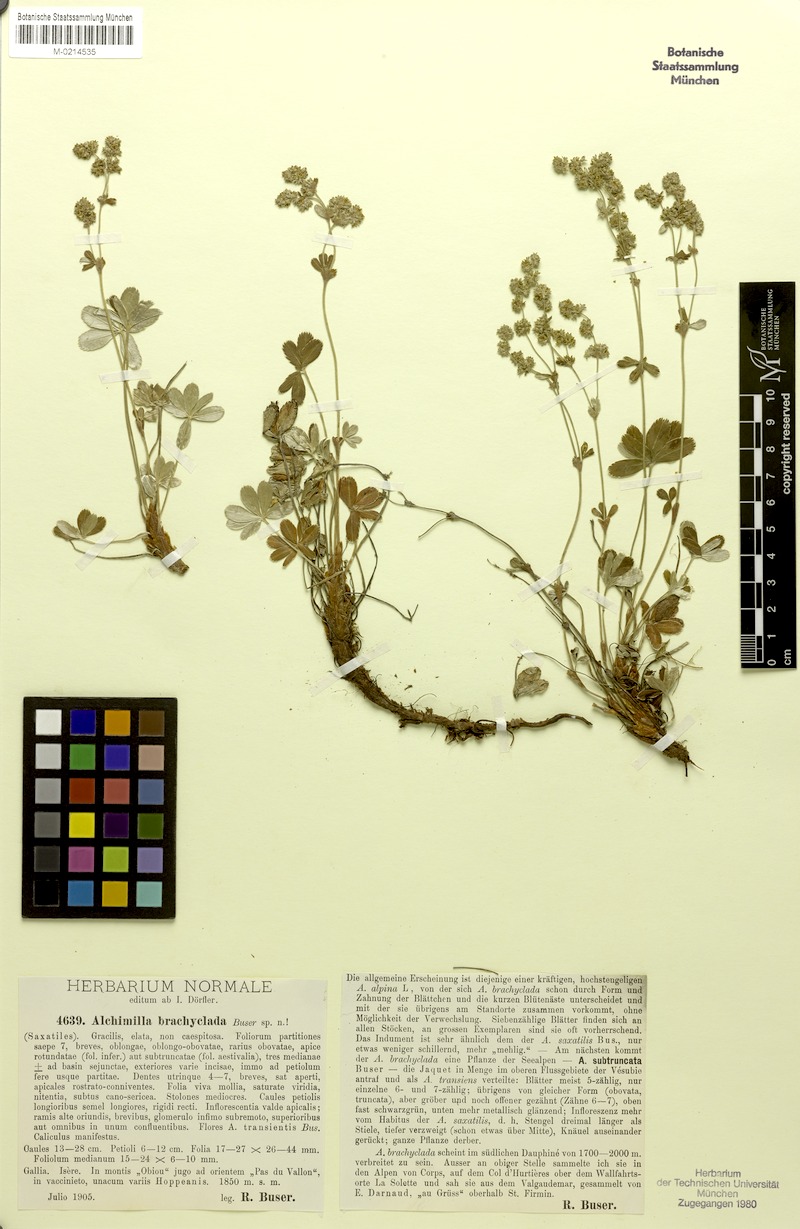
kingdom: Plantae
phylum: Tracheophyta
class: Magnoliopsida
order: Rosales
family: Rosaceae
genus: Alchemilla
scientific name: Alchemilla transiens
